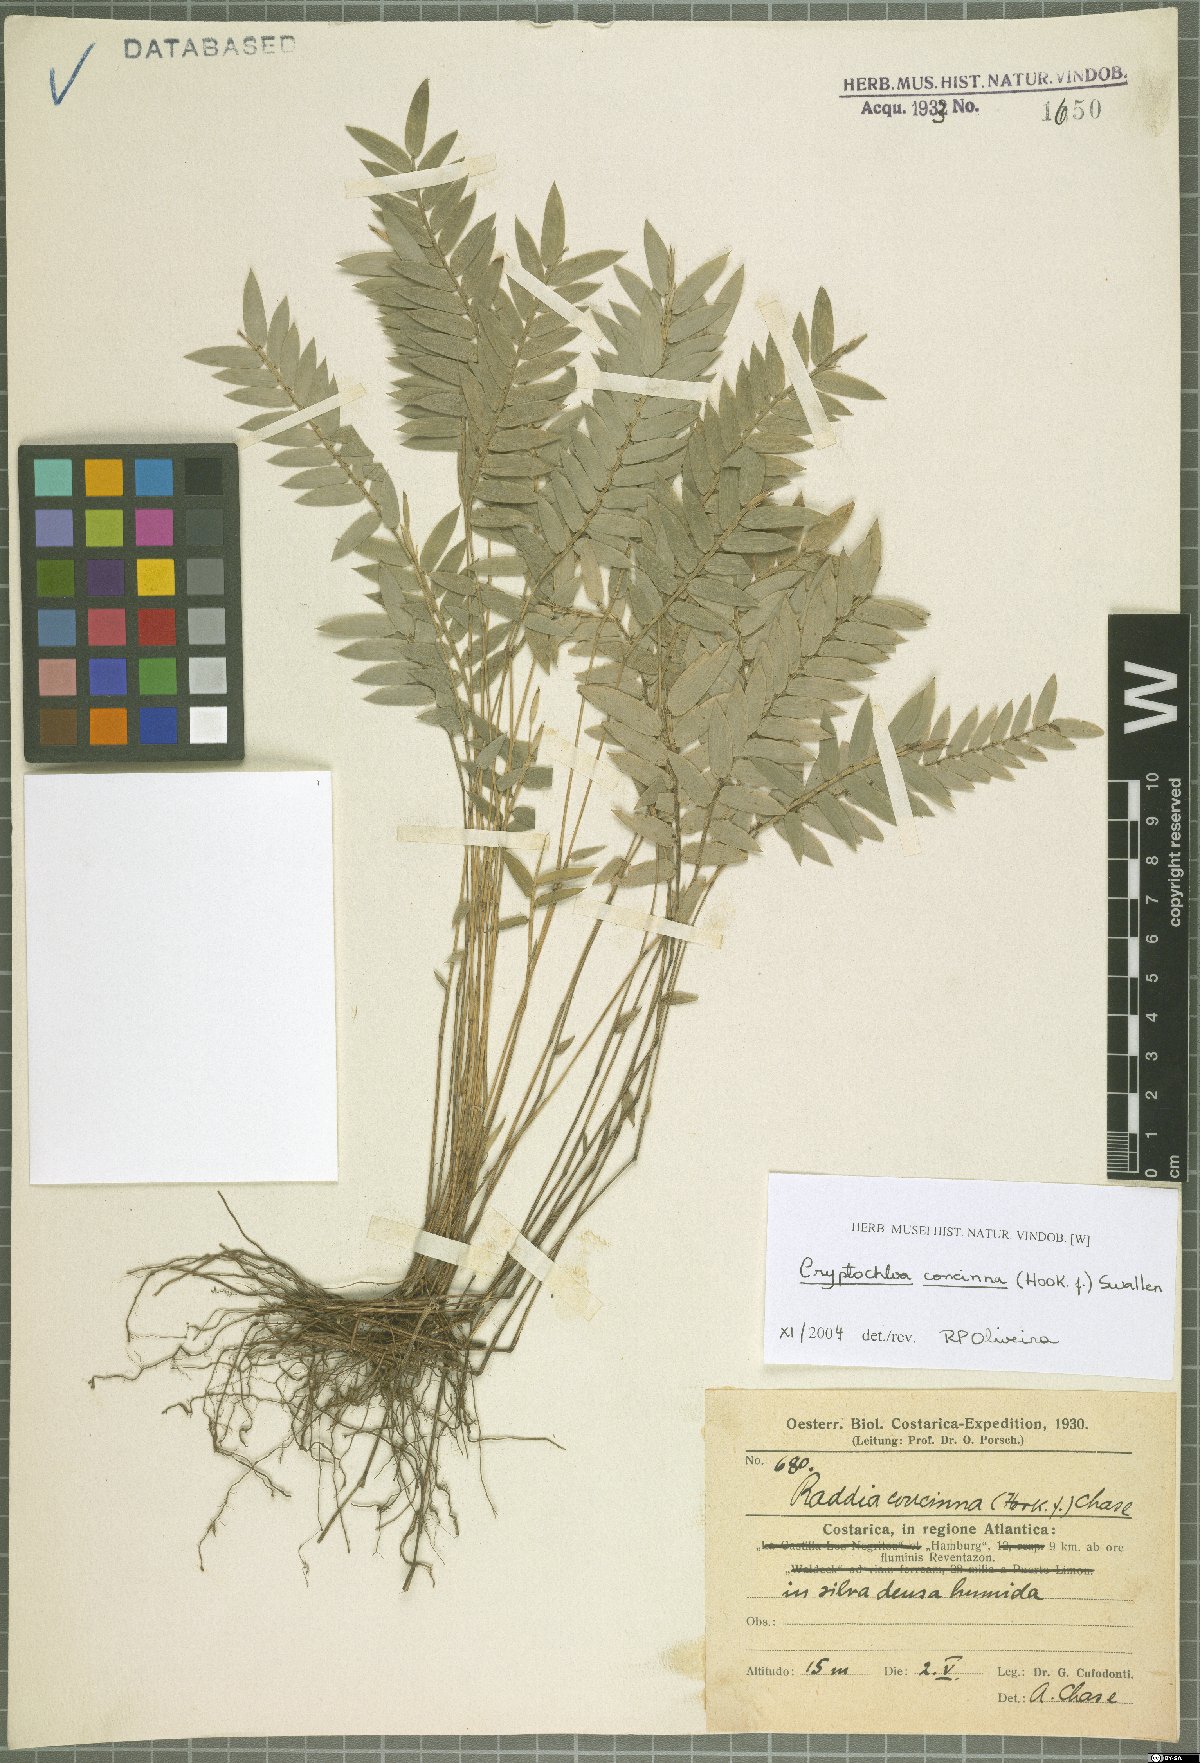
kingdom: Plantae
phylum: Tracheophyta
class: Liliopsida
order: Poales
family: Poaceae
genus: Cryptochloa
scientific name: Cryptochloa concinna
